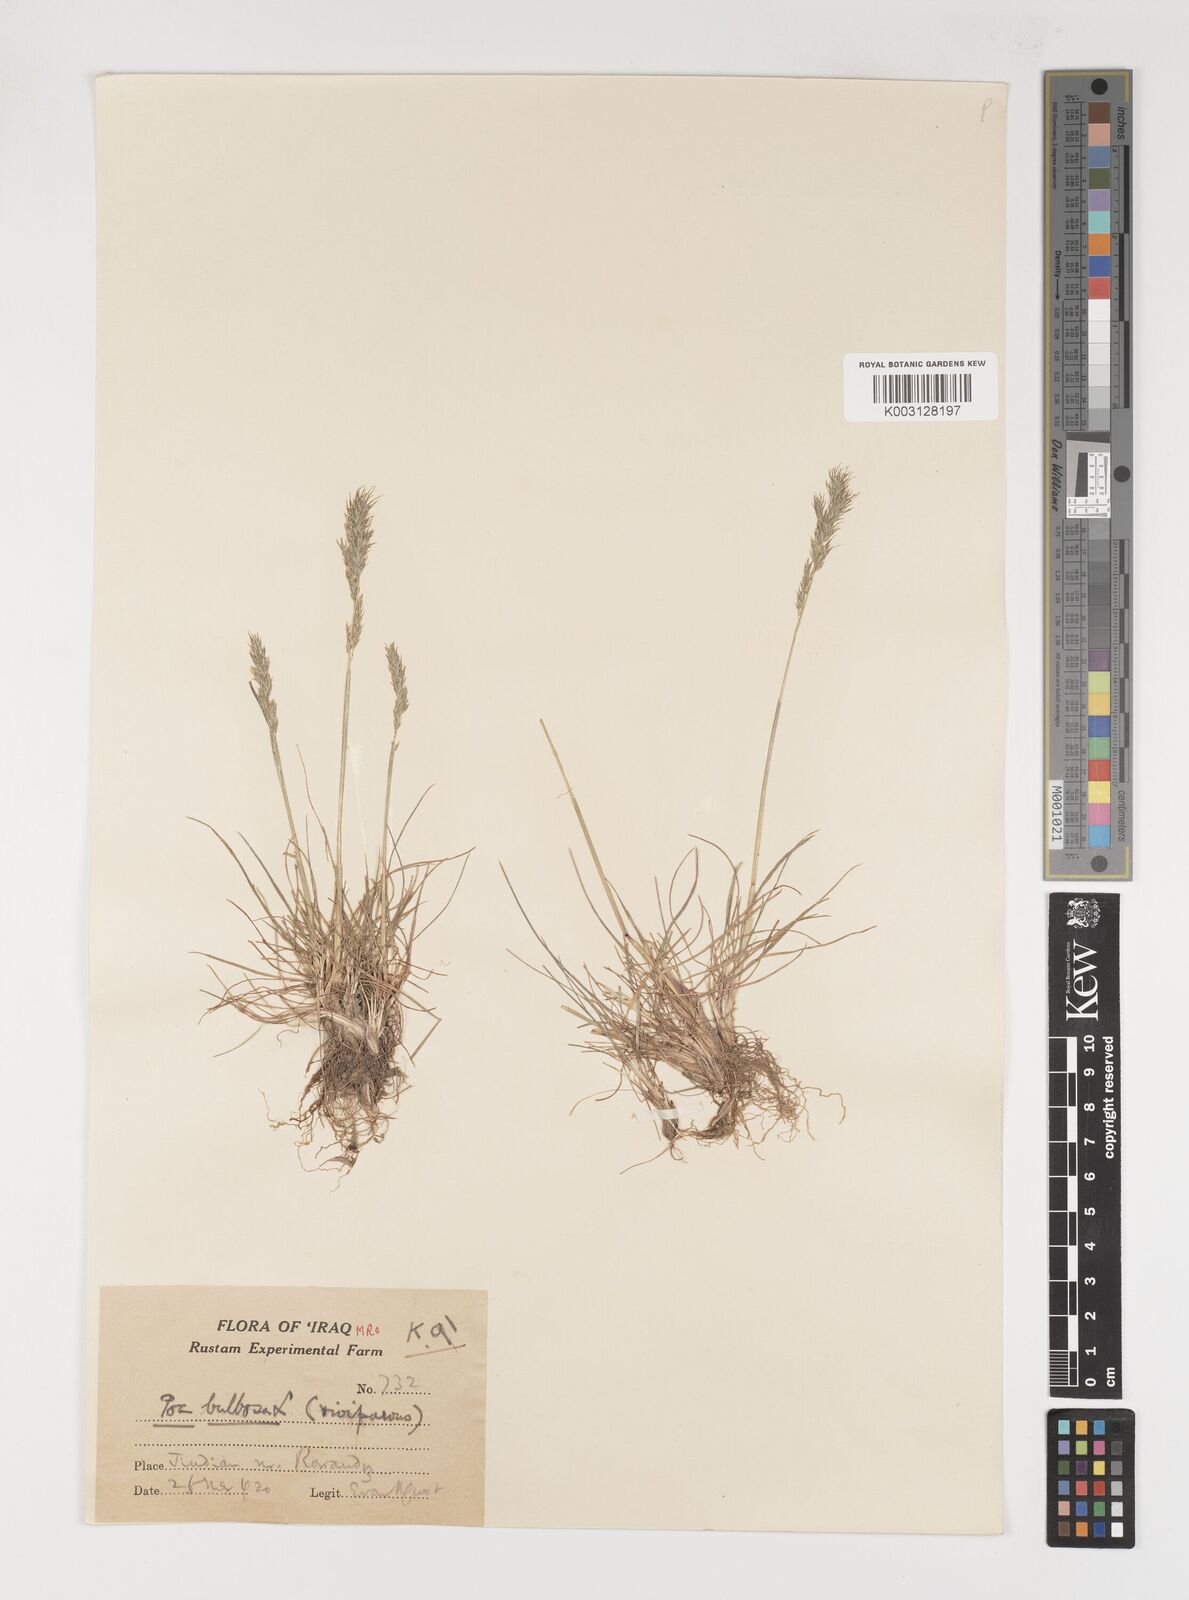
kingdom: Plantae
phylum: Tracheophyta
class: Liliopsida
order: Poales
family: Poaceae
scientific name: Poaceae
